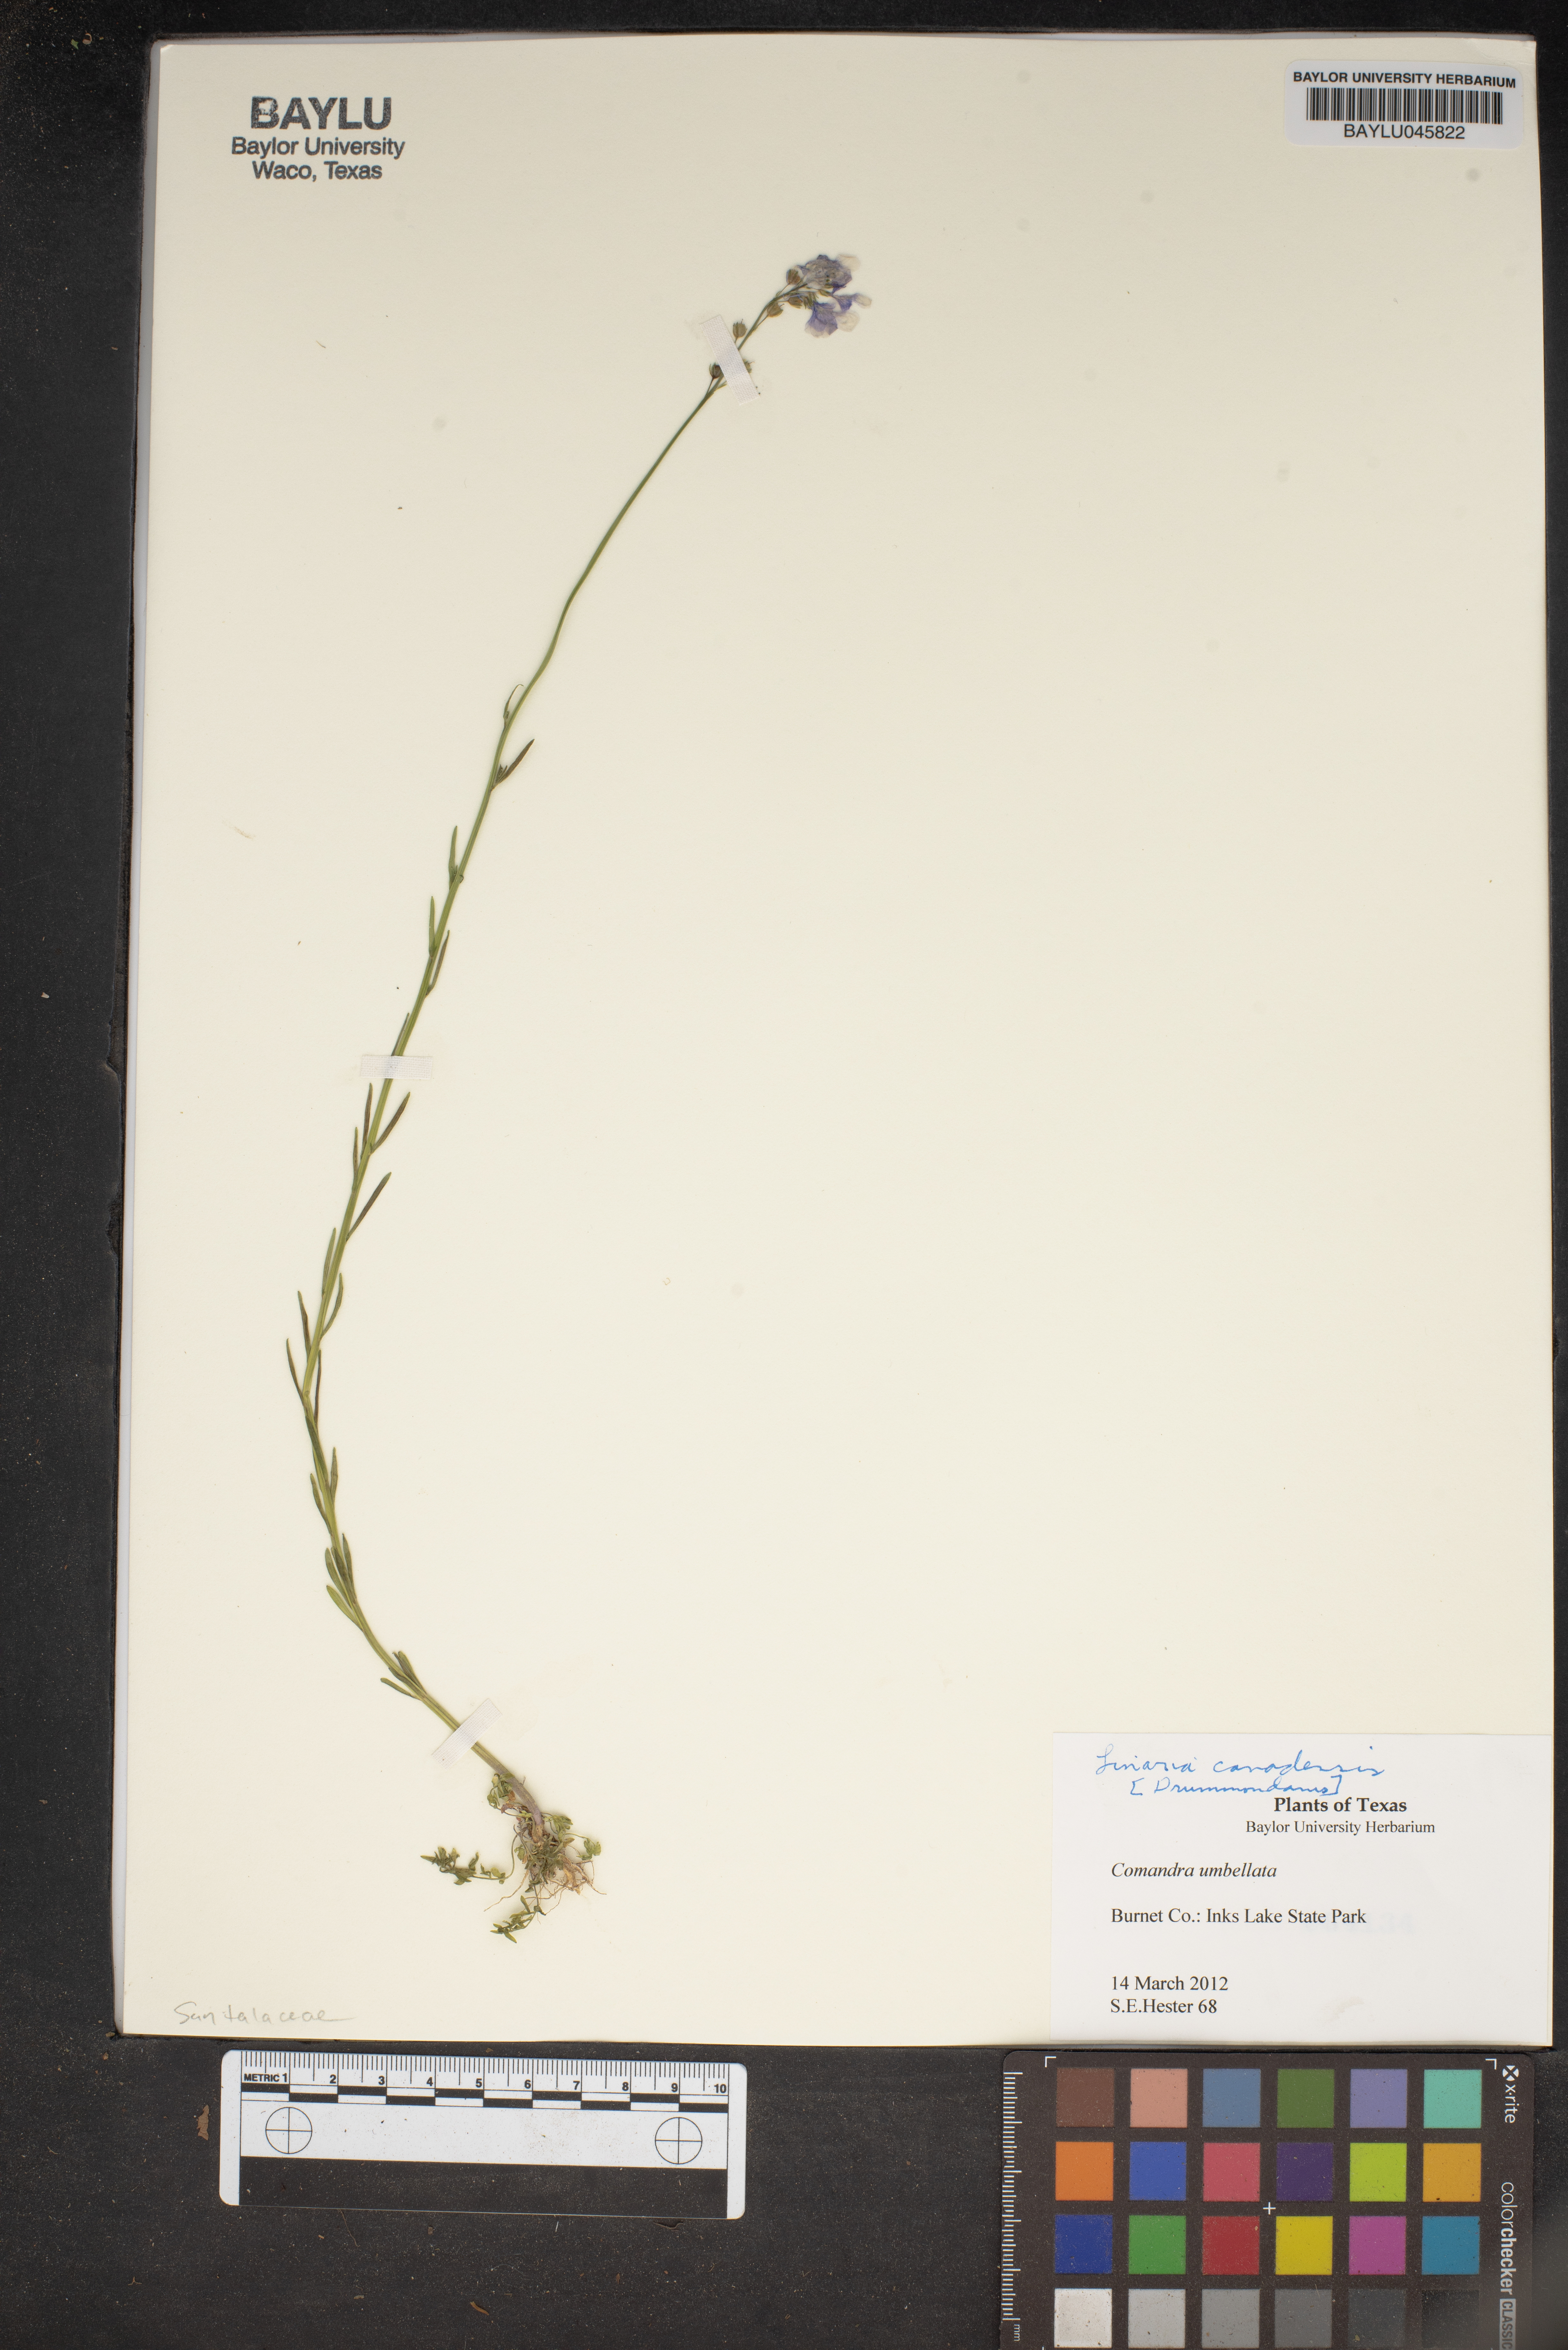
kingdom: Plantae
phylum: Tracheophyta
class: Magnoliopsida
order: Santalales
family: Comandraceae
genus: Comandra
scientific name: Comandra umbellata
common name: Bastard toadflax
